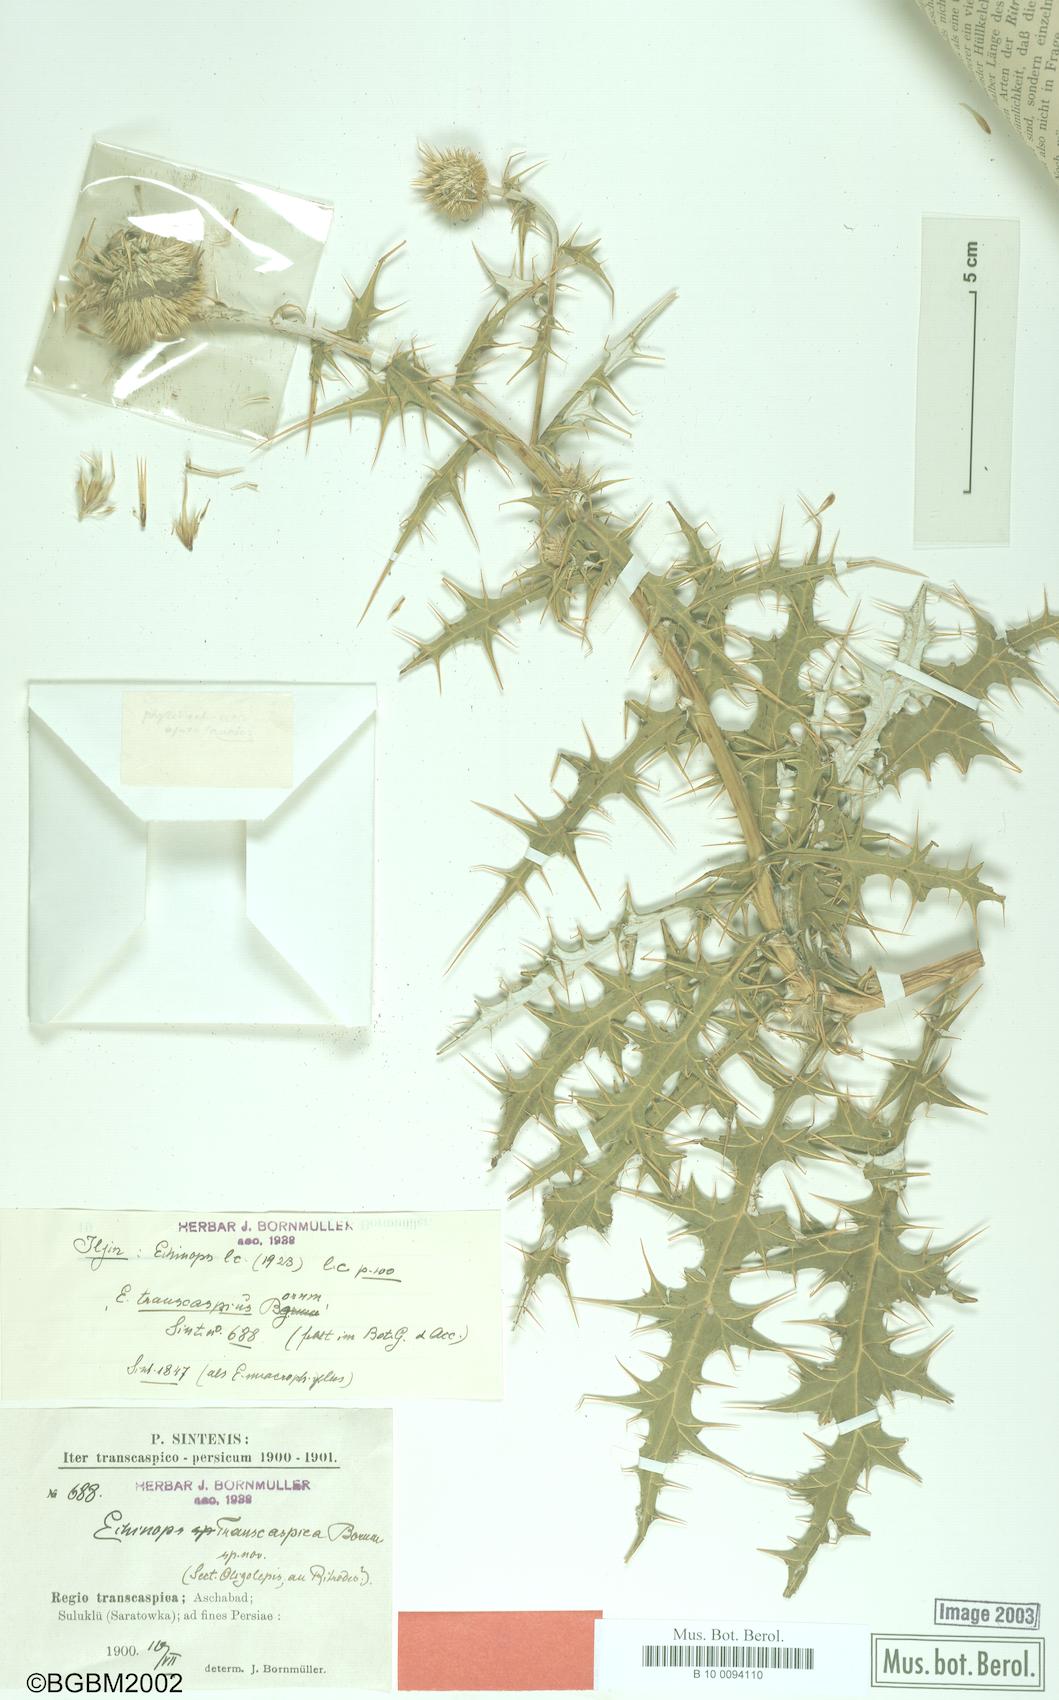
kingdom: Plantae
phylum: Tracheophyta
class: Magnoliopsida
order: Asterales
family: Asteraceae
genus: Echinops
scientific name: Echinops transcaspicus
